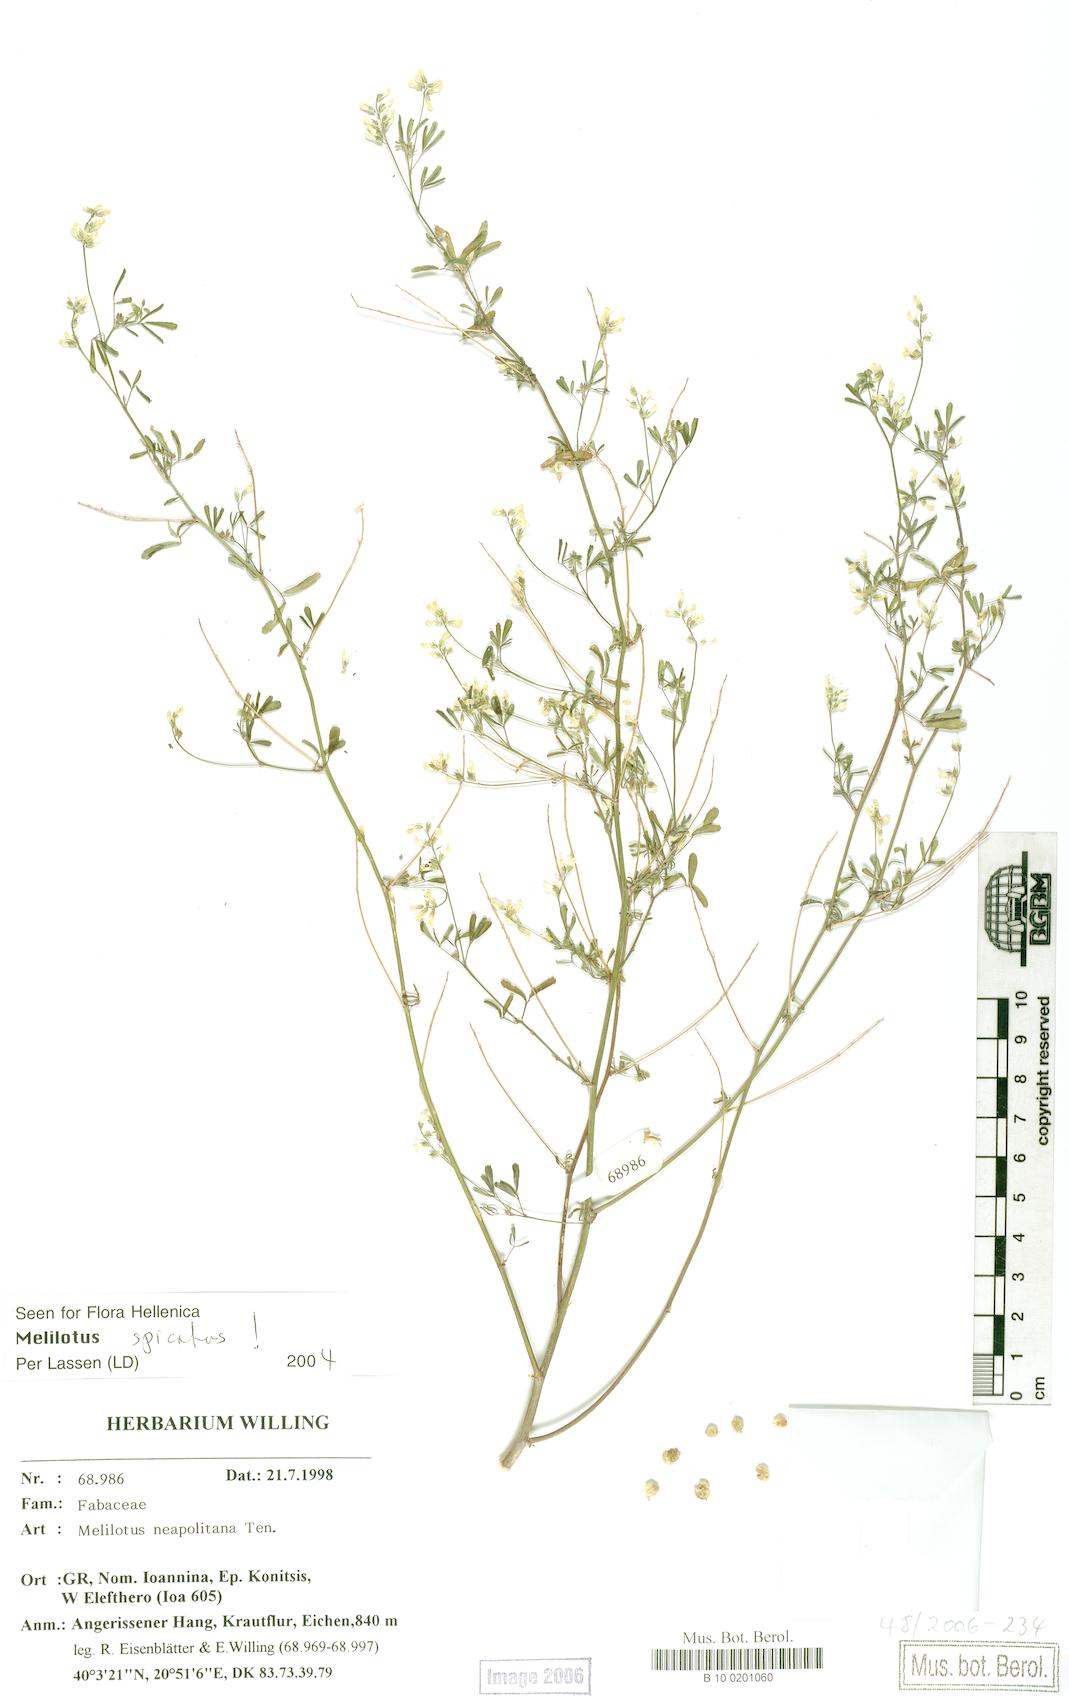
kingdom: Plantae
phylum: Tracheophyta
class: Magnoliopsida
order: Fabales
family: Fabaceae
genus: Melilotus
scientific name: Melilotus neapolitanus
